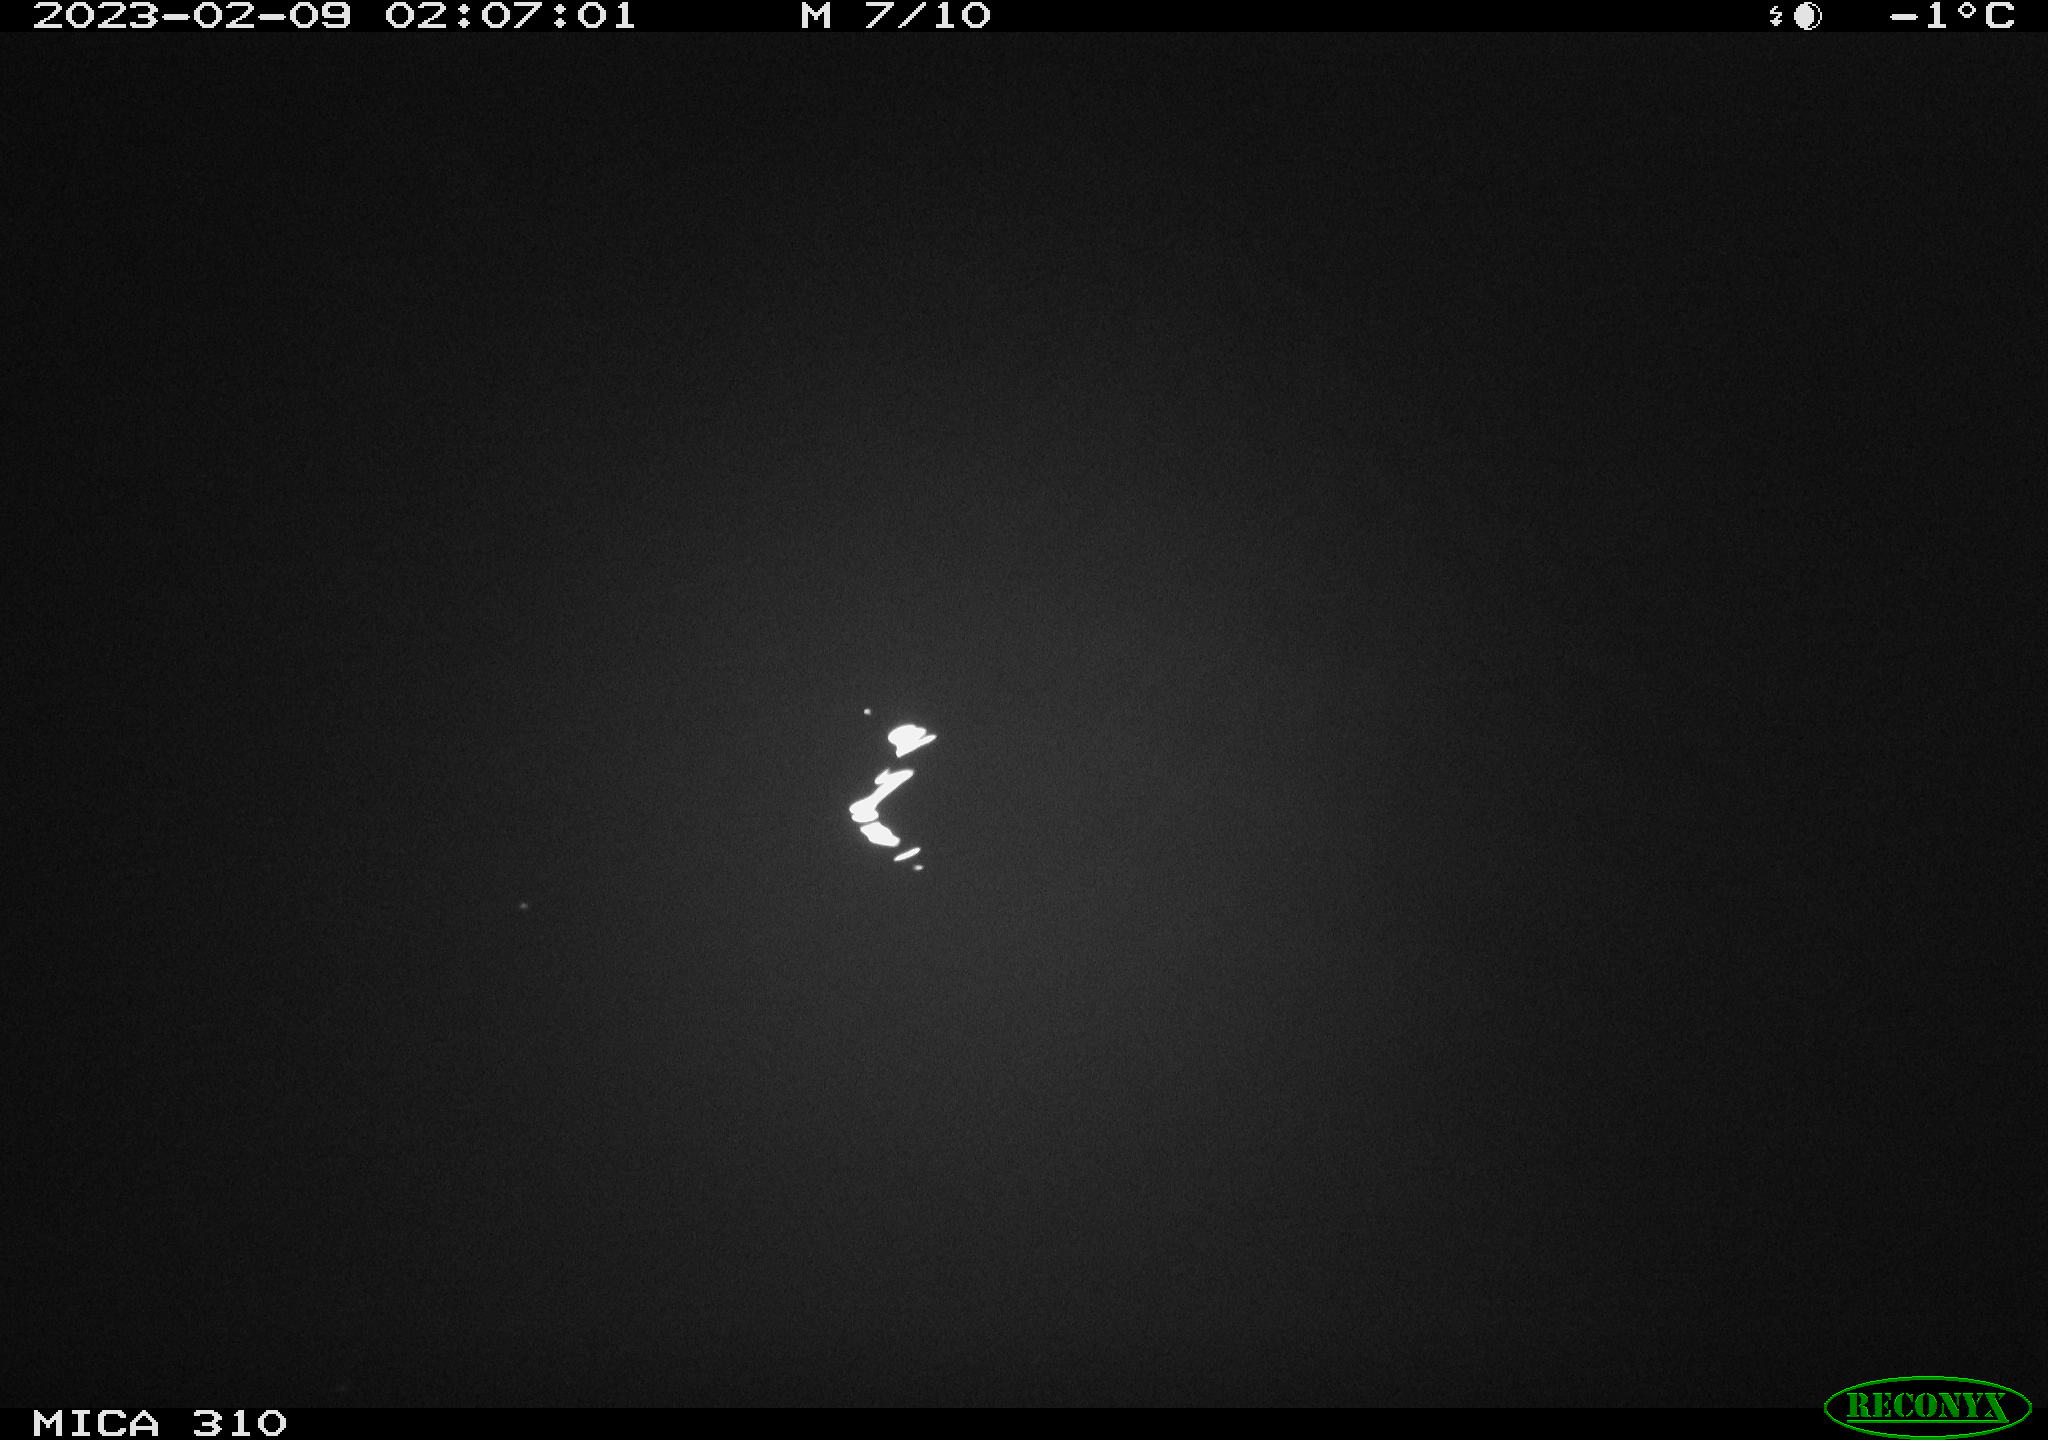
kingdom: Animalia
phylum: Chordata
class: Mammalia
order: Rodentia
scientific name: Rodentia
